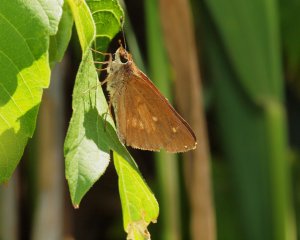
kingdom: Animalia
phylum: Arthropoda
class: Insecta
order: Lepidoptera
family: Hesperiidae
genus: Poanes
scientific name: Poanes viator
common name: Broad-winged Skipper
